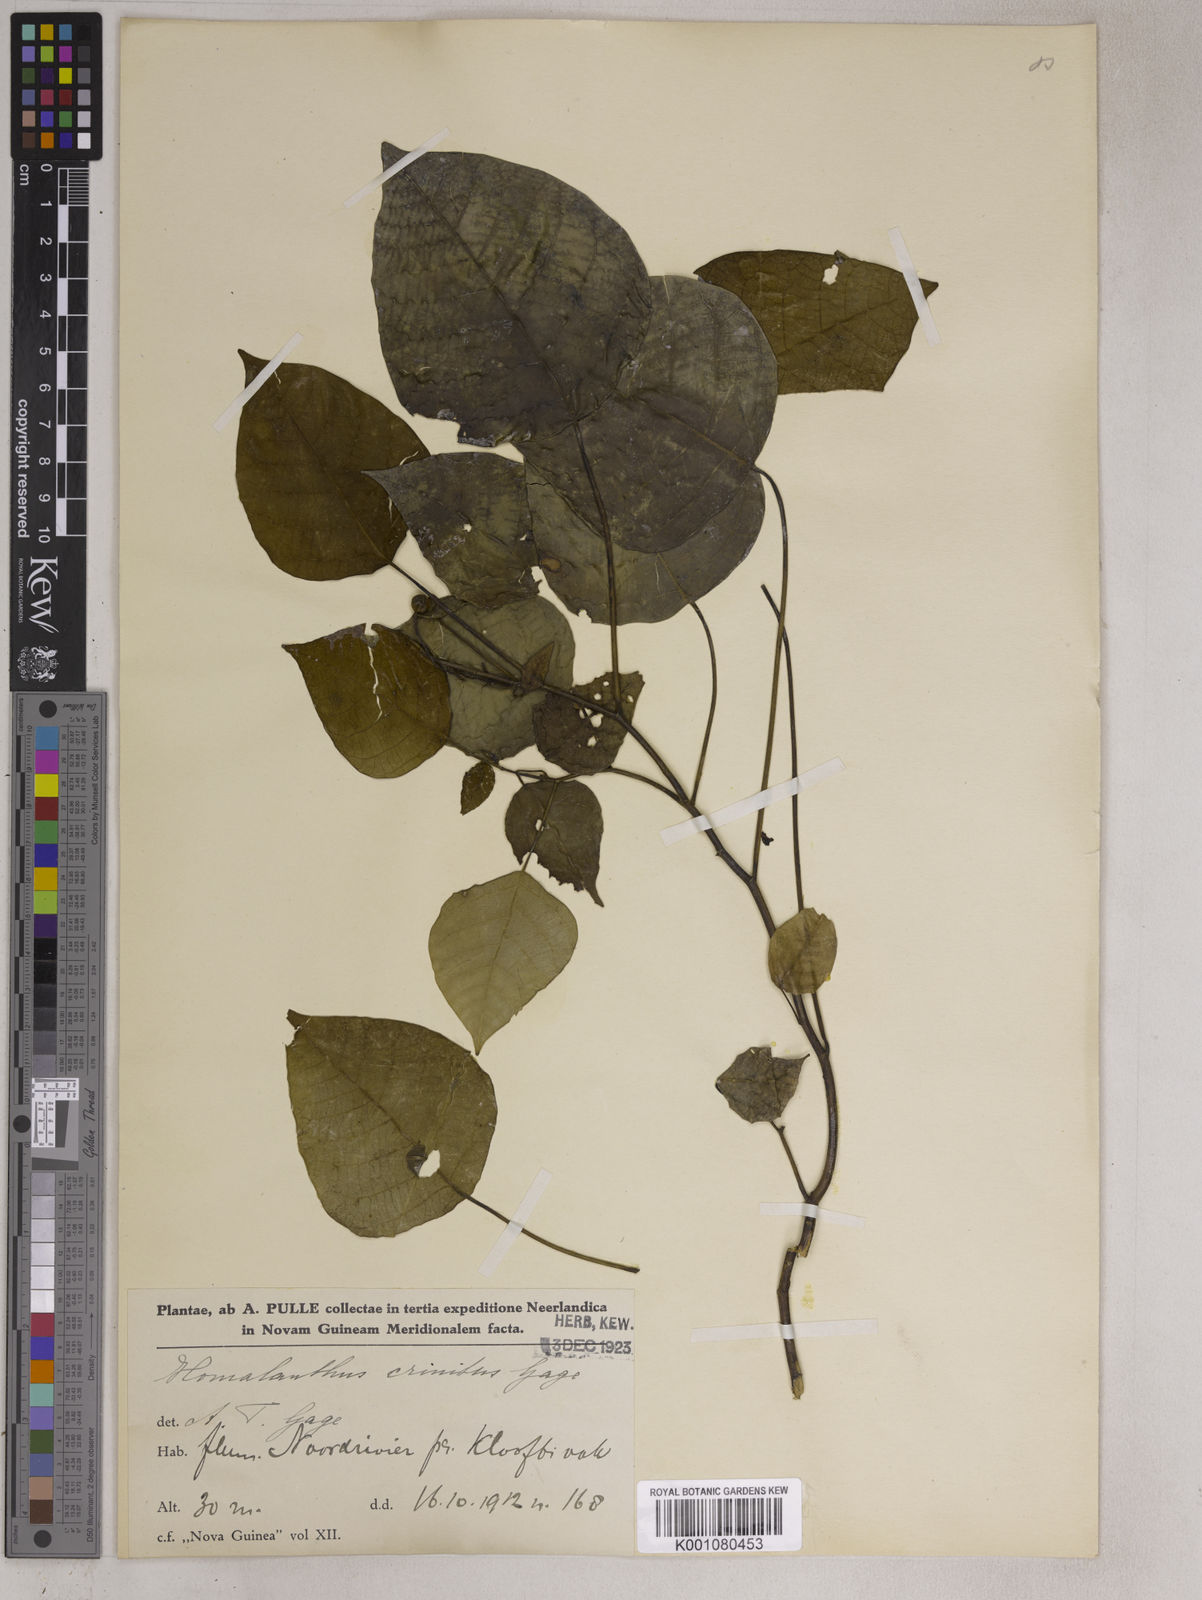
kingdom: Plantae
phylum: Tracheophyta
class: Magnoliopsida
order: Malpighiales
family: Euphorbiaceae
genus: Homalanthus
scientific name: Homalanthus novoguineensis
